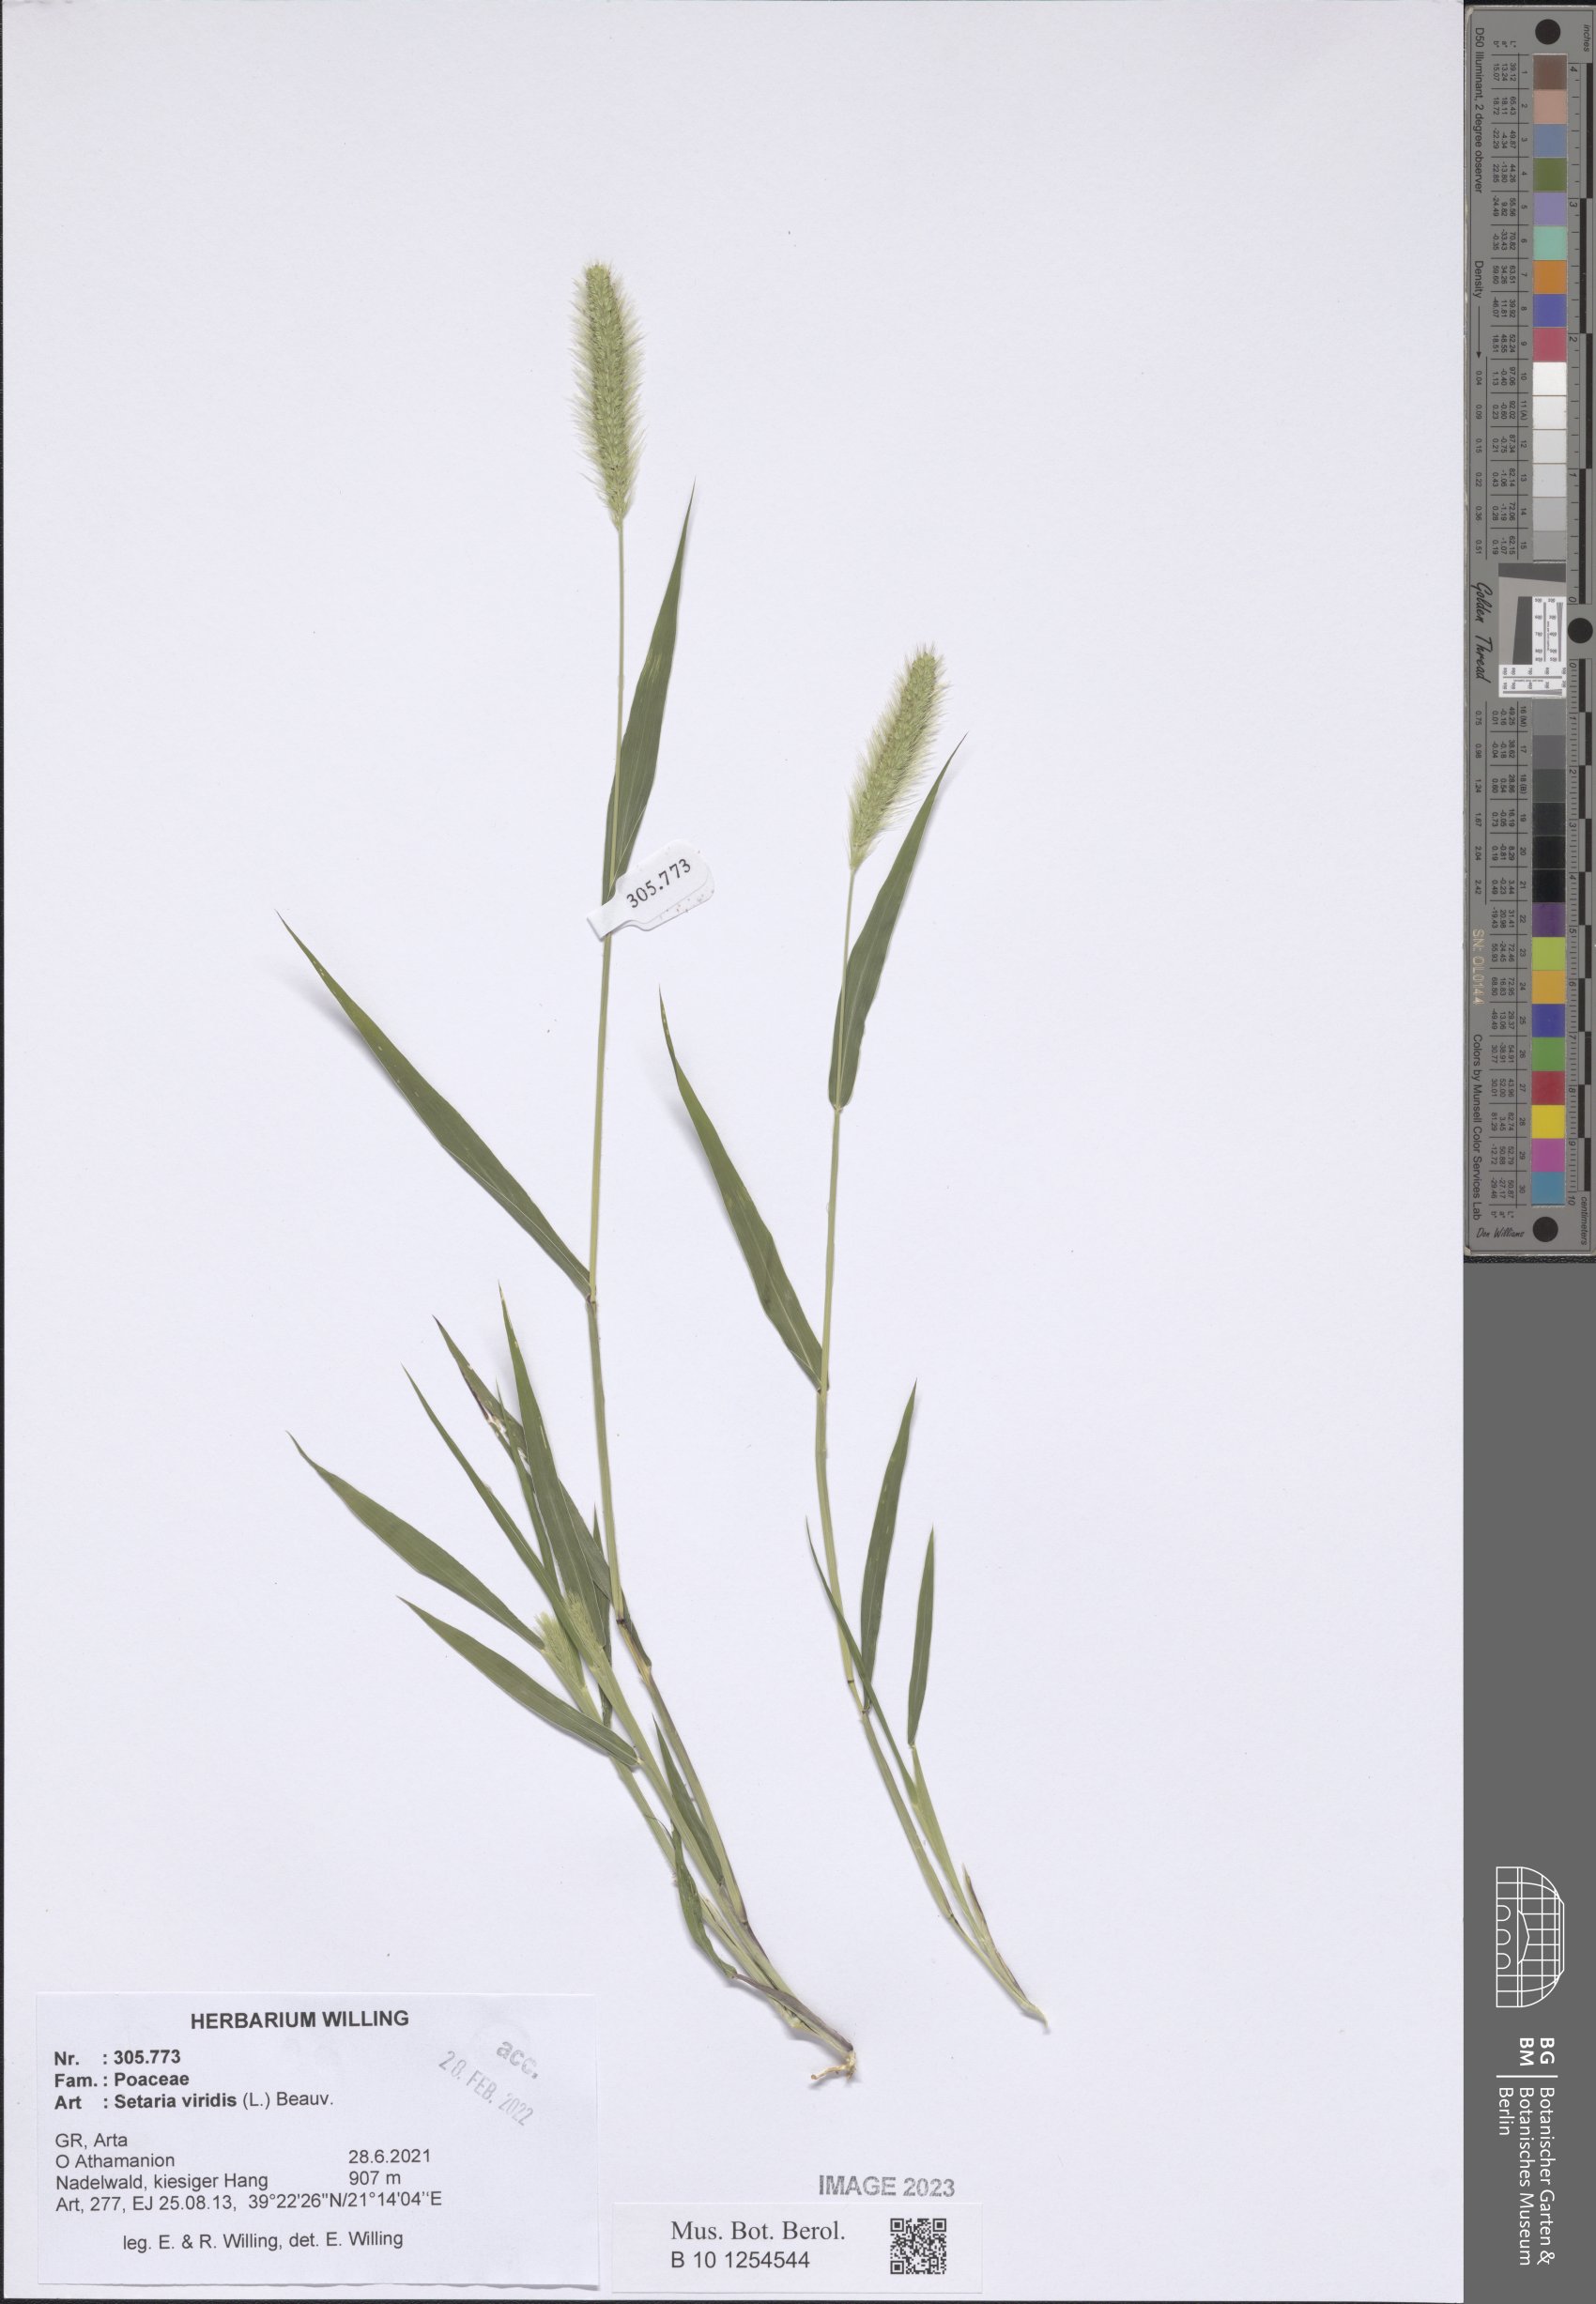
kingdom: Plantae
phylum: Tracheophyta
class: Liliopsida
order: Poales
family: Poaceae
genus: Setaria
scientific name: Setaria viridis
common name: Green bristlegrass
